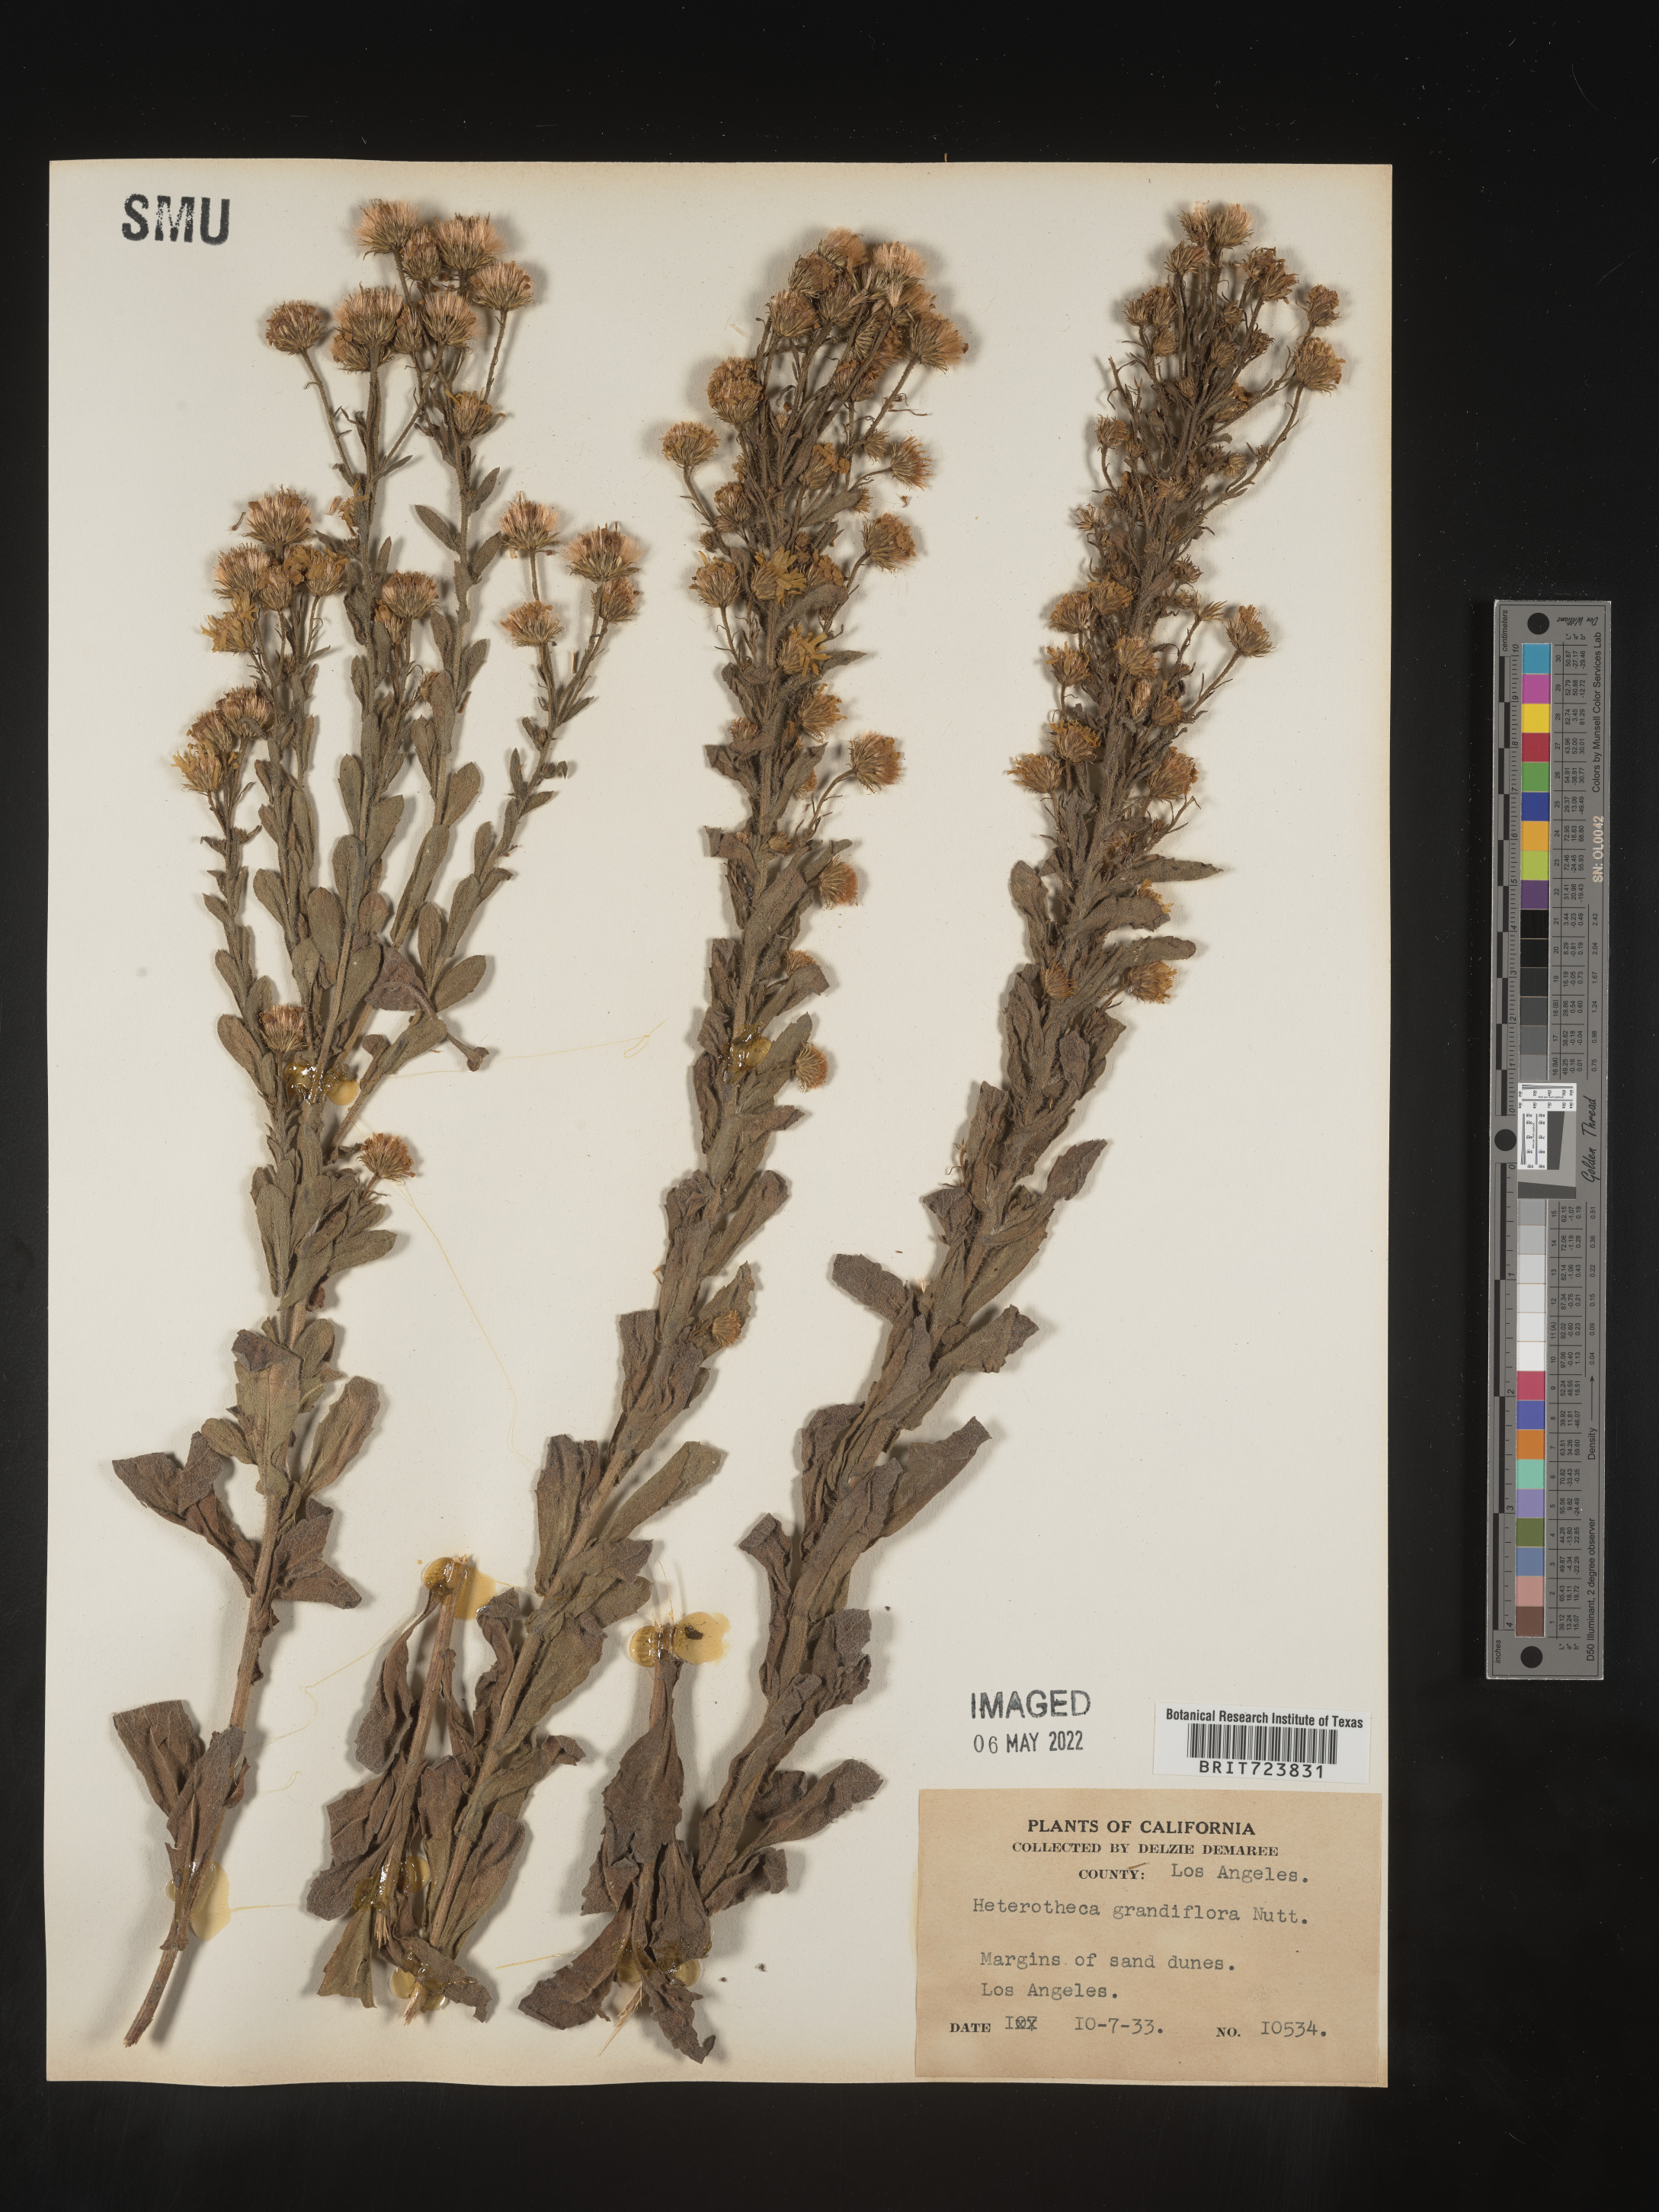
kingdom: Plantae
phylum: Tracheophyta
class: Magnoliopsida
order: Asterales
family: Asteraceae
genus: Heterotheca
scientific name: Heterotheca grandiflora
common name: Telegraphweed
